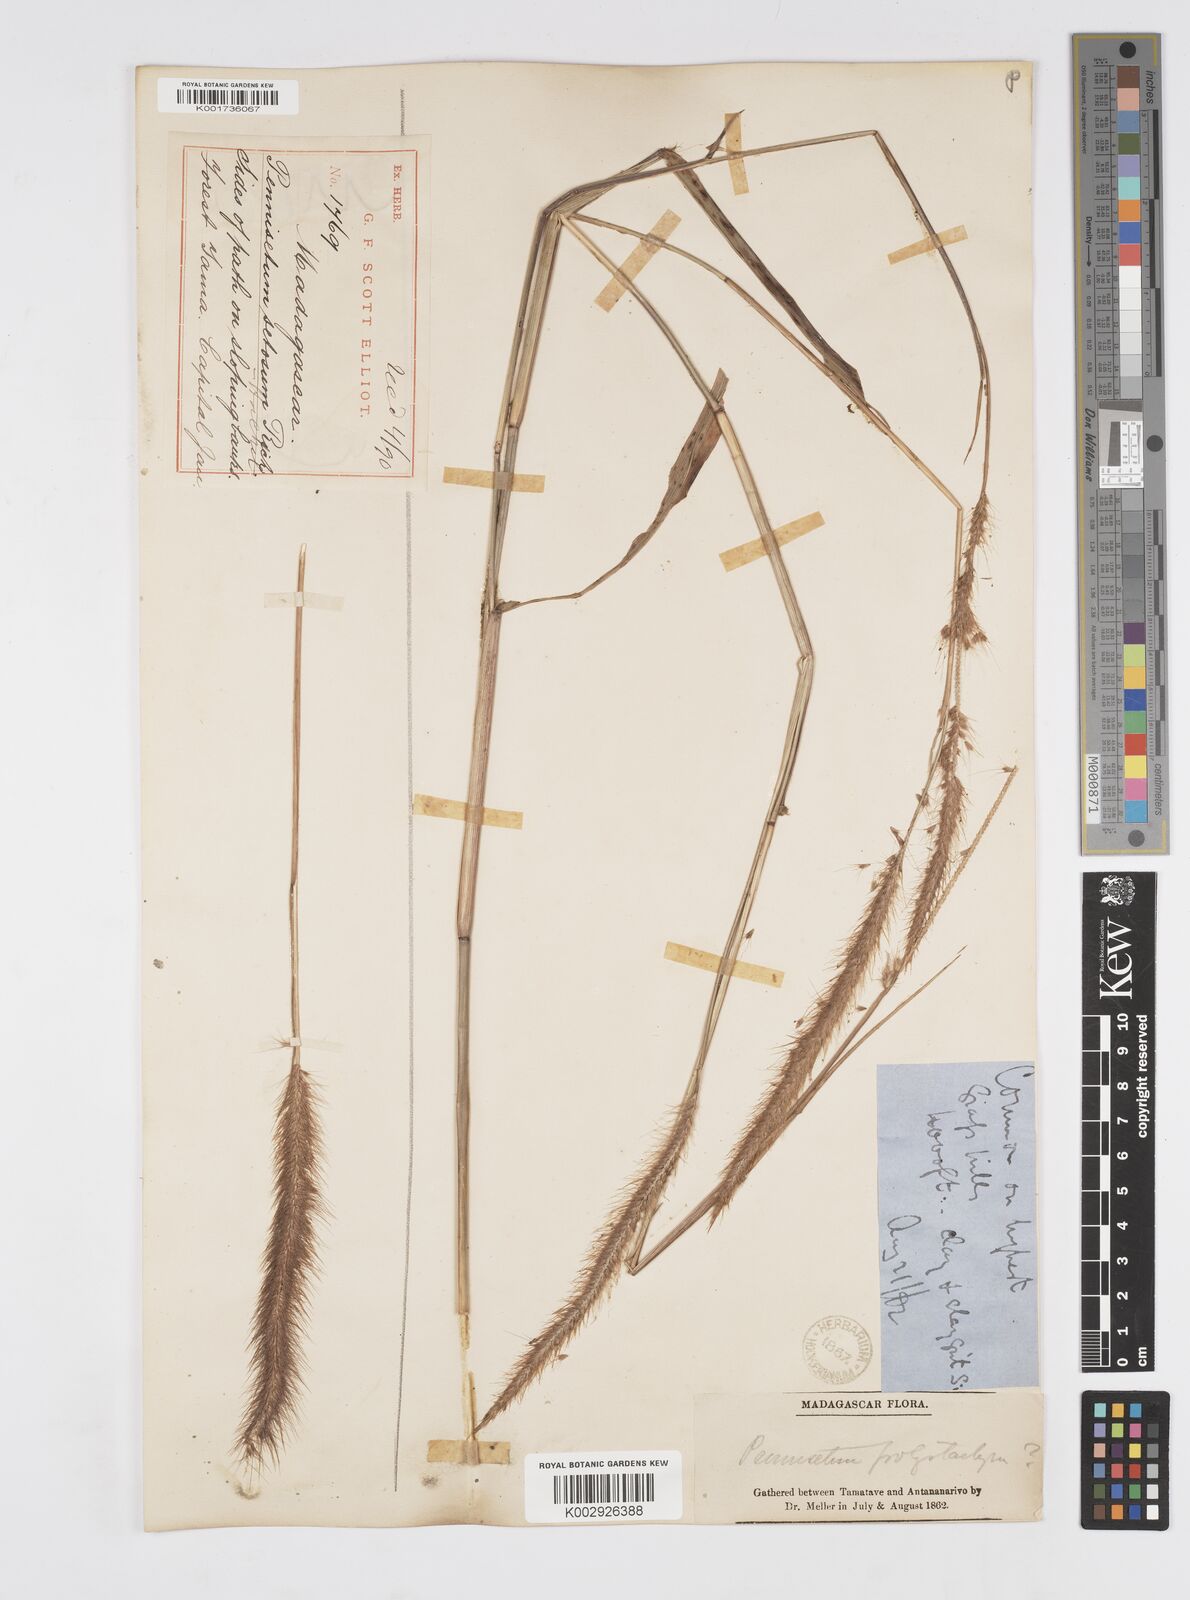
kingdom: Plantae
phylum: Tracheophyta
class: Liliopsida
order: Poales
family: Poaceae
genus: Setaria
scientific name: Setaria parviflora
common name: Knotroot bristle-grass
